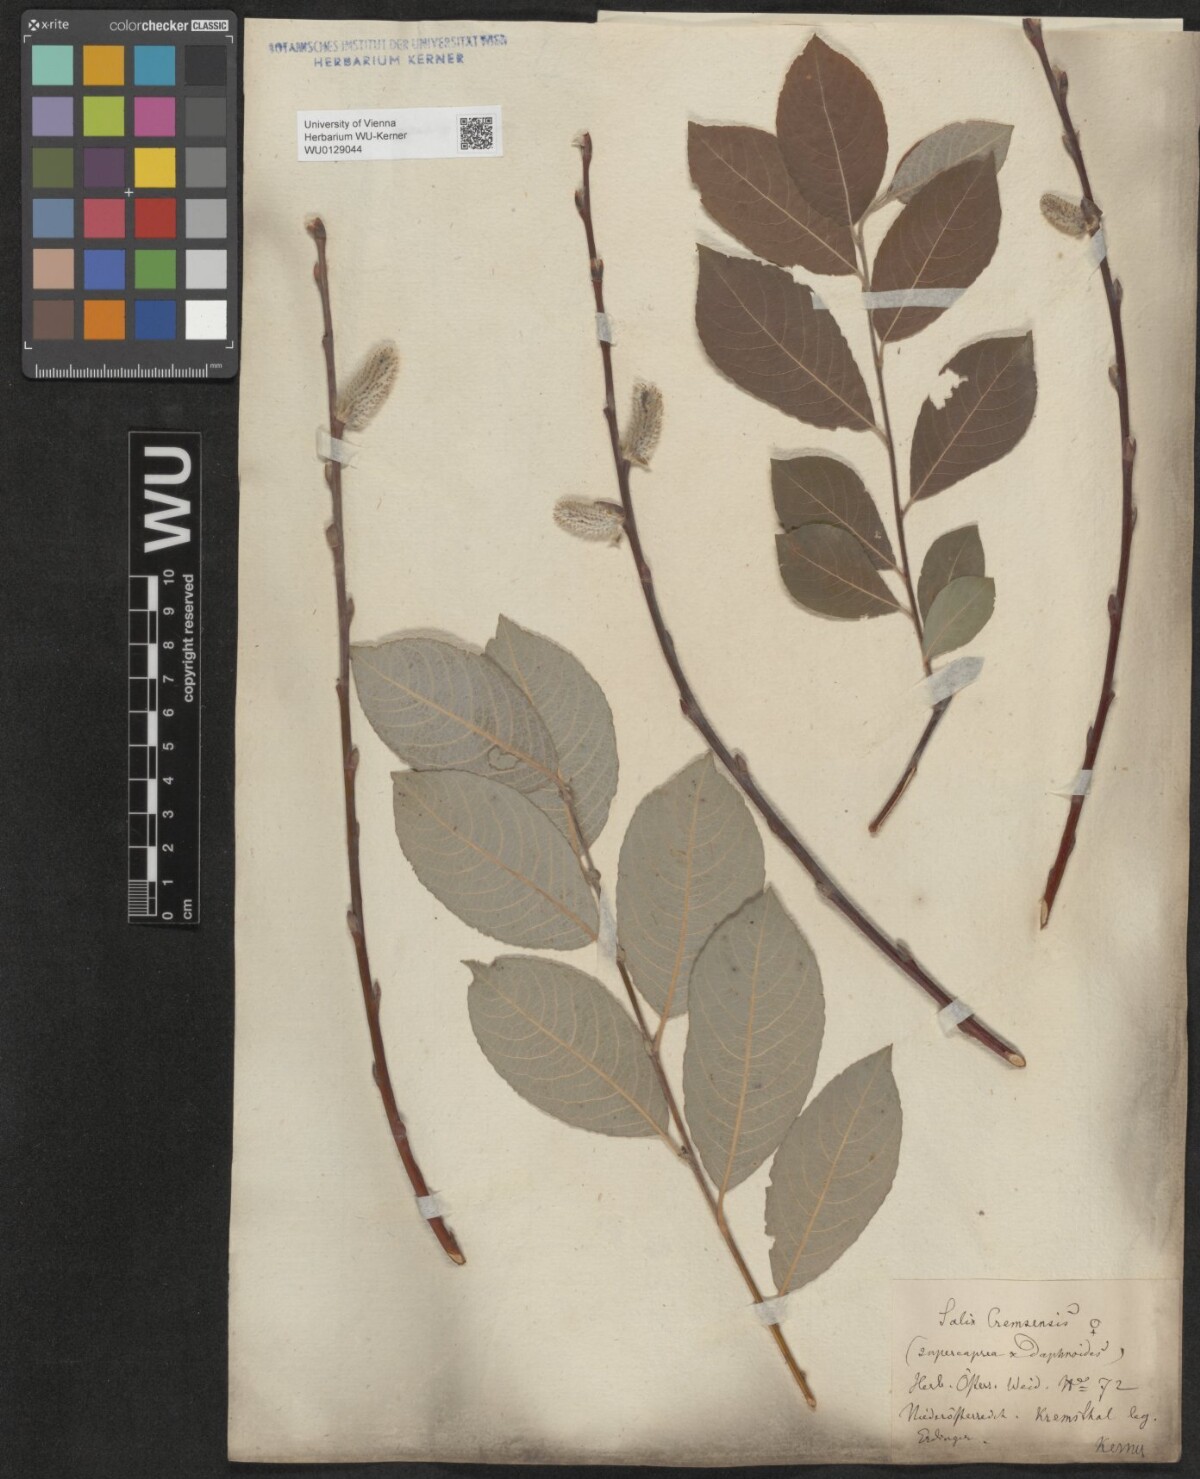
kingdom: Plantae
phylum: Tracheophyta
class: Magnoliopsida
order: Malpighiales
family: Salicaceae
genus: Salix
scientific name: Salix erdingeri
